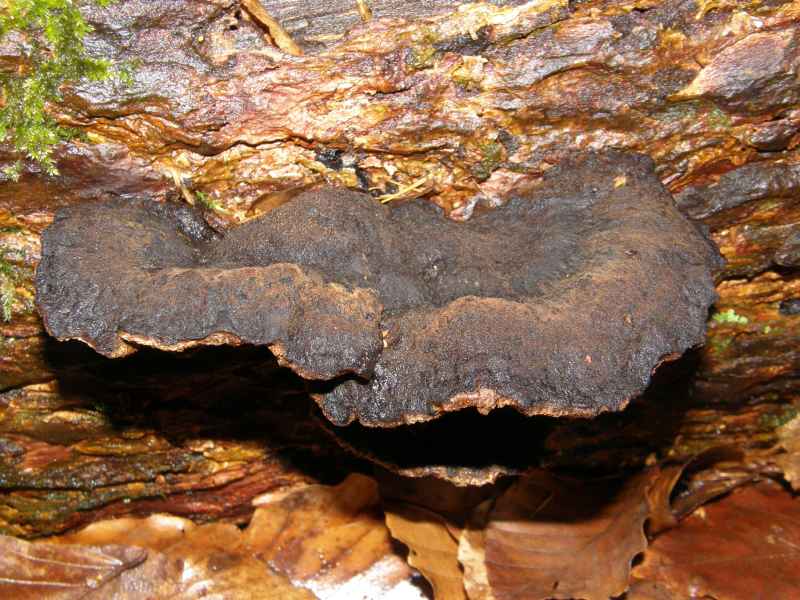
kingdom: Fungi
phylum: Basidiomycota
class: Agaricomycetes
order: Polyporales
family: Ischnodermataceae
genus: Ischnoderma
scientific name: Ischnoderma benzoinum
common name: gran-tjæreporesvamp
